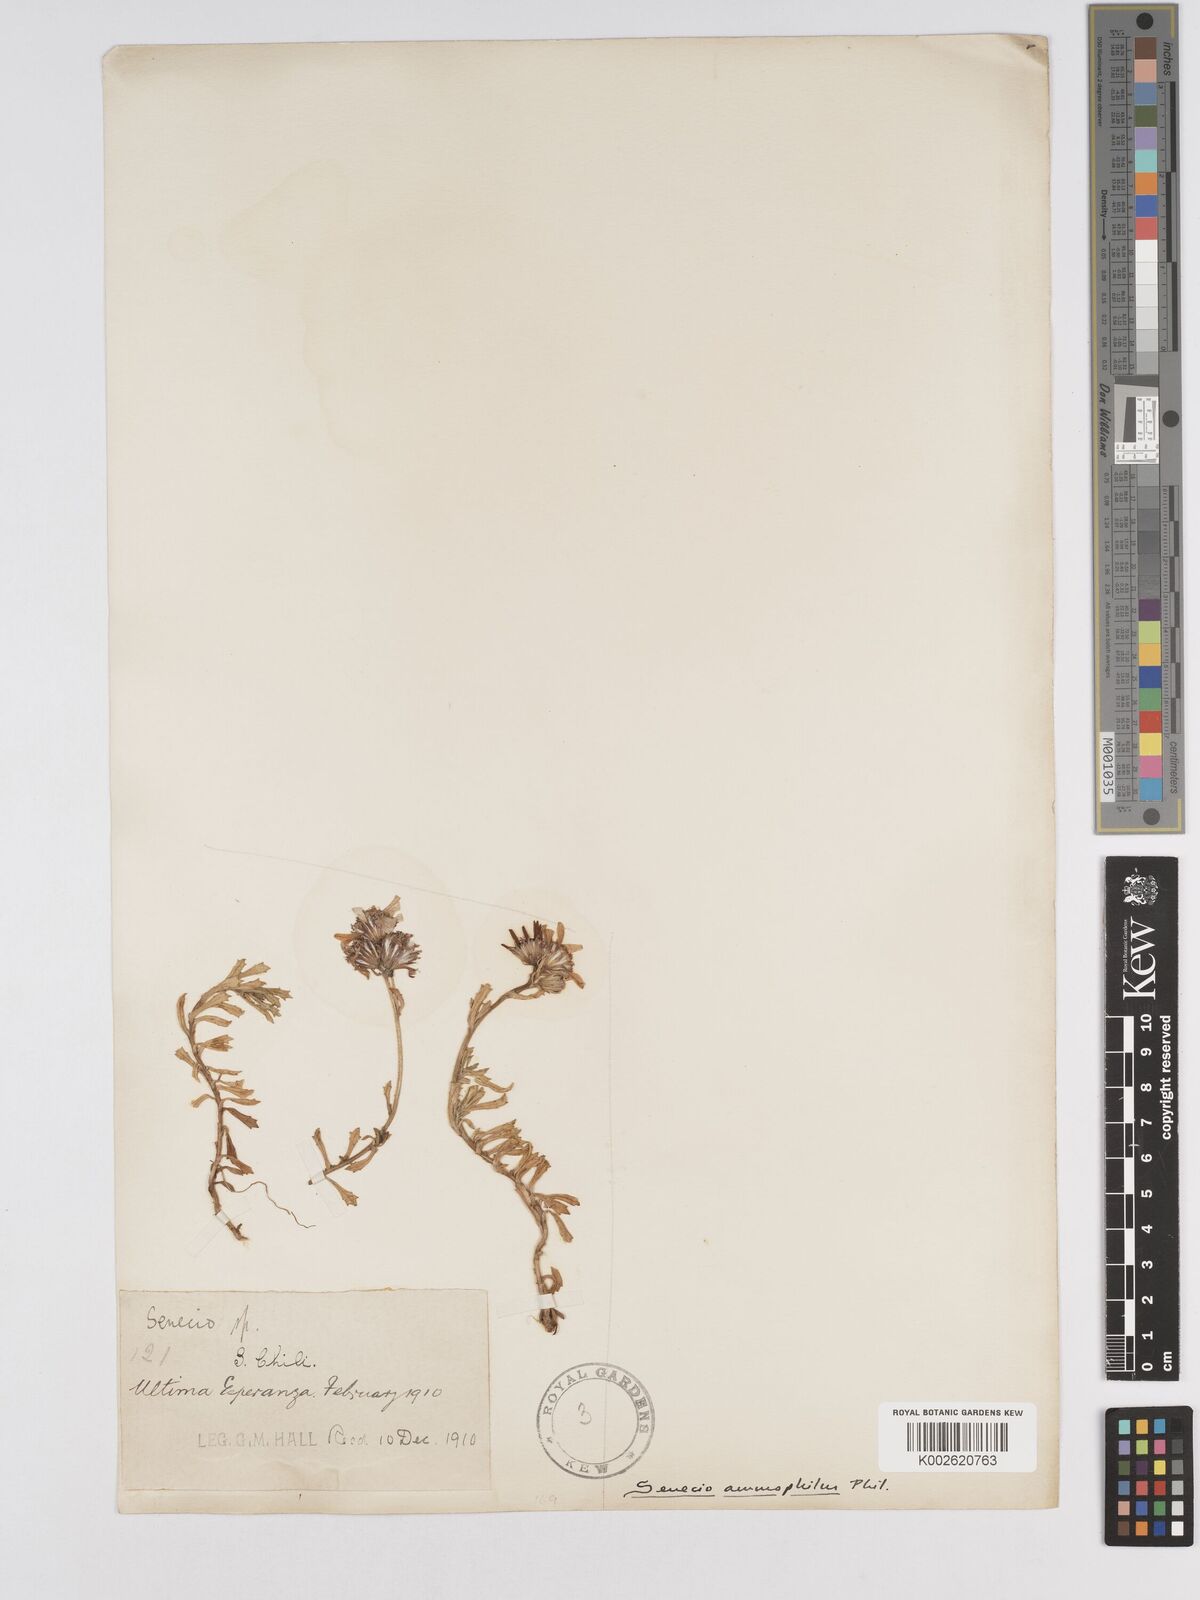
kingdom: Plantae
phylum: Tracheophyta
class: Magnoliopsida
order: Asterales
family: Asteraceae
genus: Senecio
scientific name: Senecio
